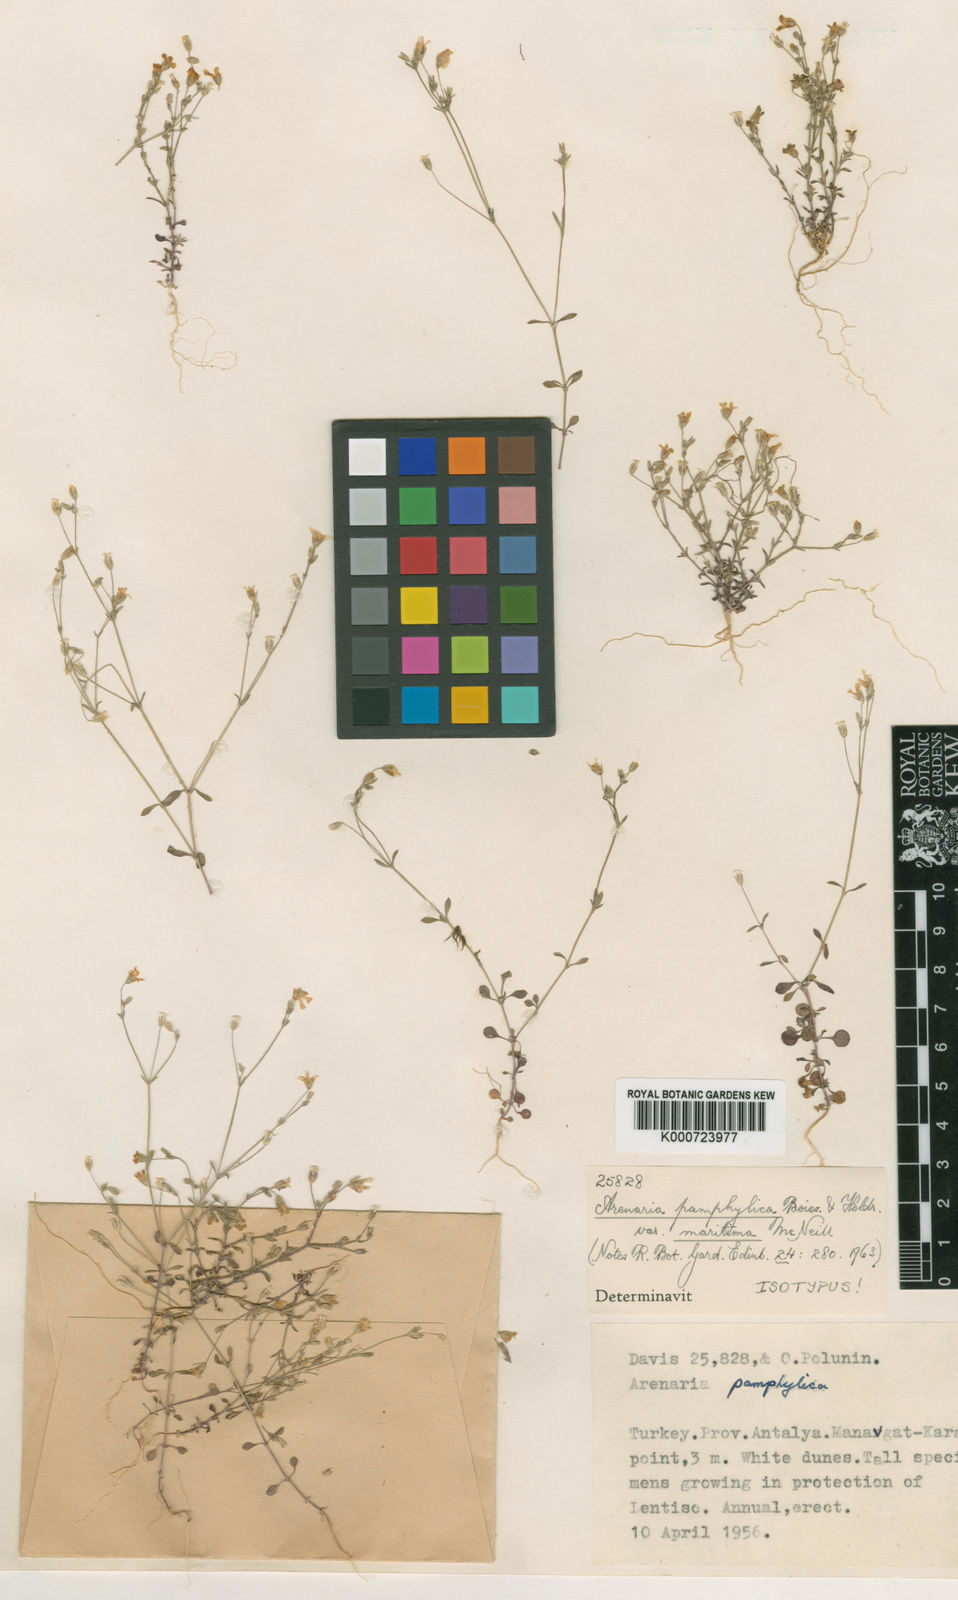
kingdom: Plantae
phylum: Tracheophyta
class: Magnoliopsida
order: Caryophyllales
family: Caryophyllaceae
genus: Arenaria
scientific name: Arenaria pamphylica
